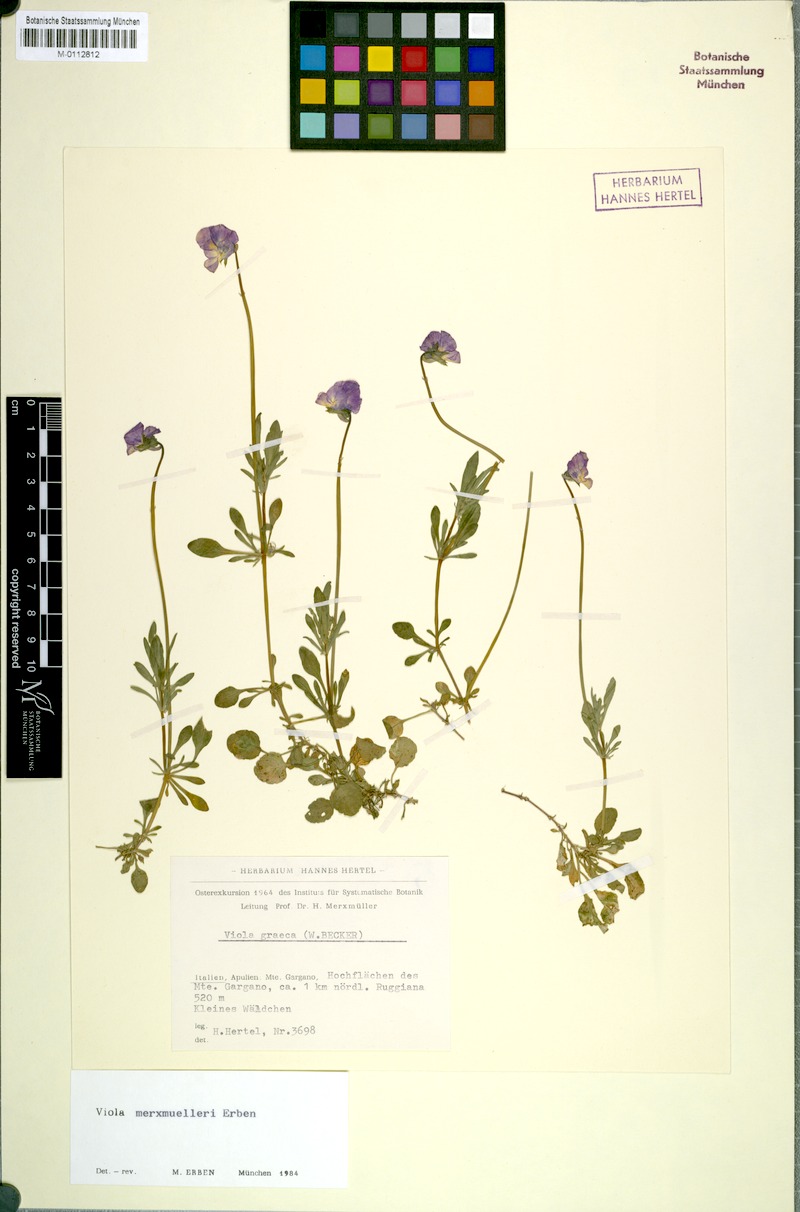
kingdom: Plantae
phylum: Tracheophyta
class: Magnoliopsida
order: Malpighiales
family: Violaceae
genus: Viola
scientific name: Viola merxmuelleri
